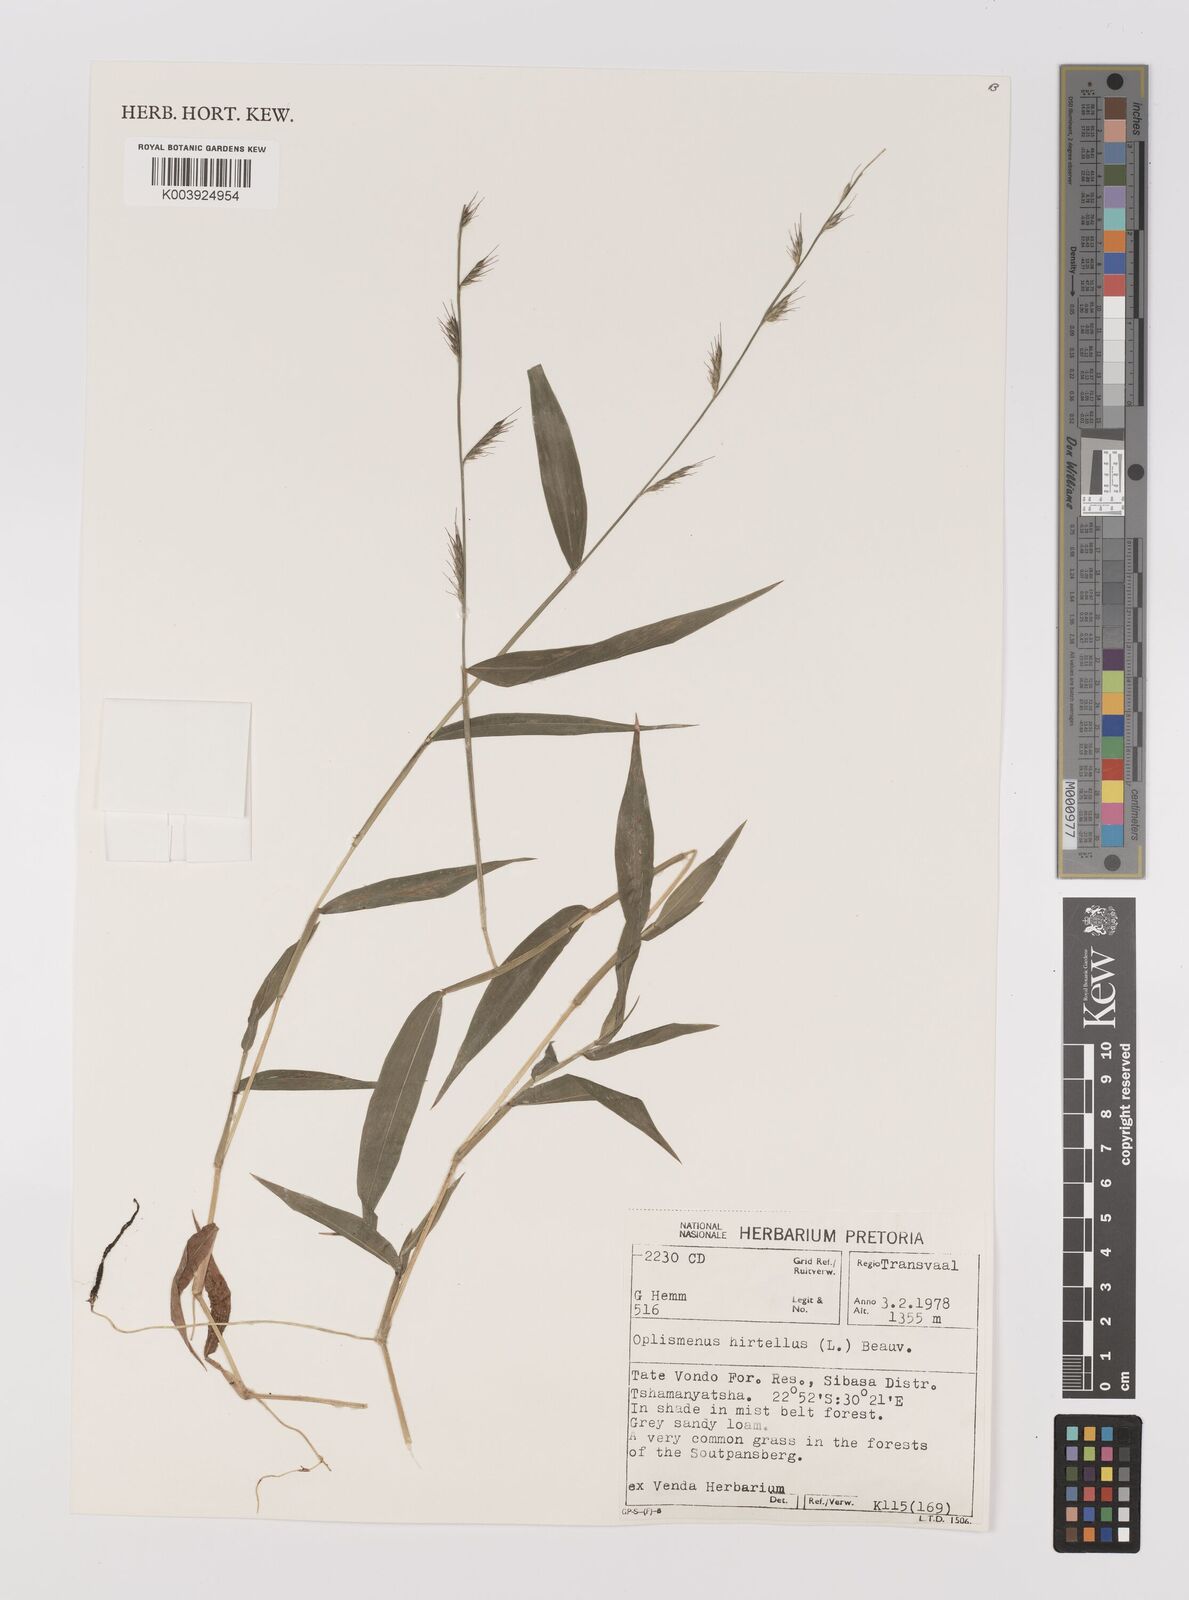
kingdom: Plantae
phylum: Tracheophyta
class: Liliopsida
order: Poales
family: Poaceae
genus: Oplismenus
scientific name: Oplismenus hirtellus
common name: Basketgrass
